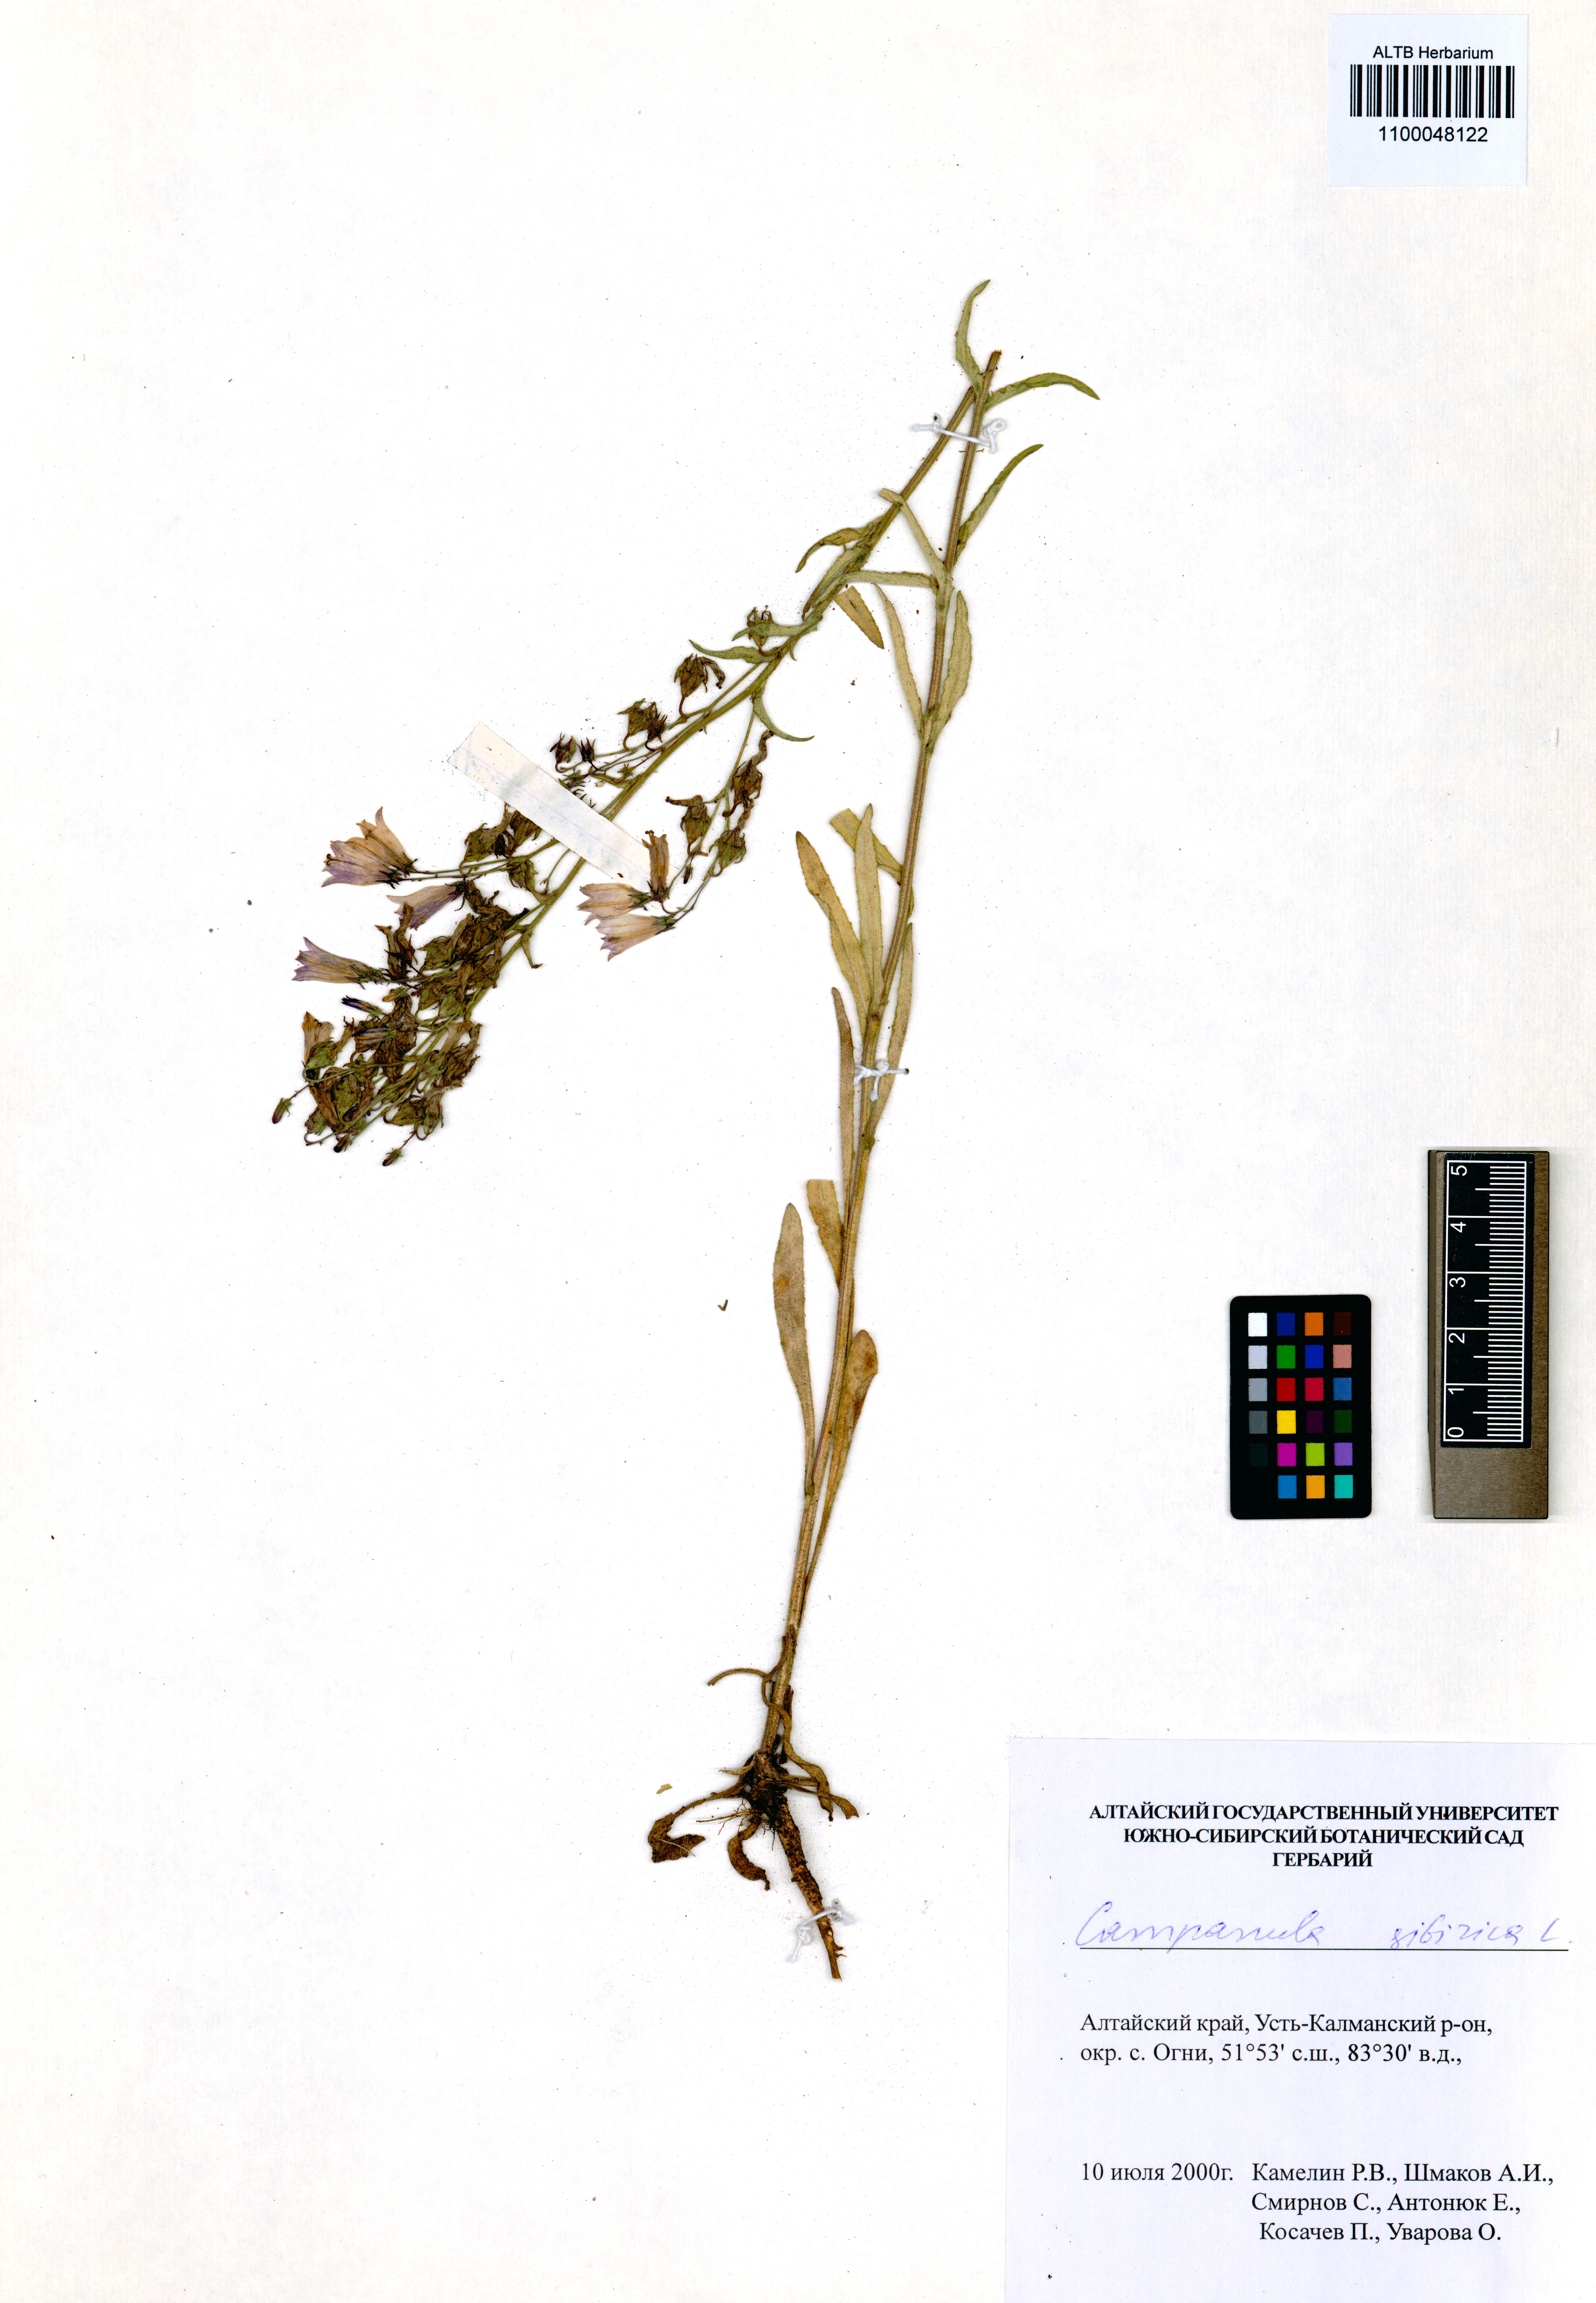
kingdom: Plantae
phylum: Tracheophyta
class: Magnoliopsida
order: Asterales
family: Campanulaceae
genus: Campanula
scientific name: Campanula sibirica
